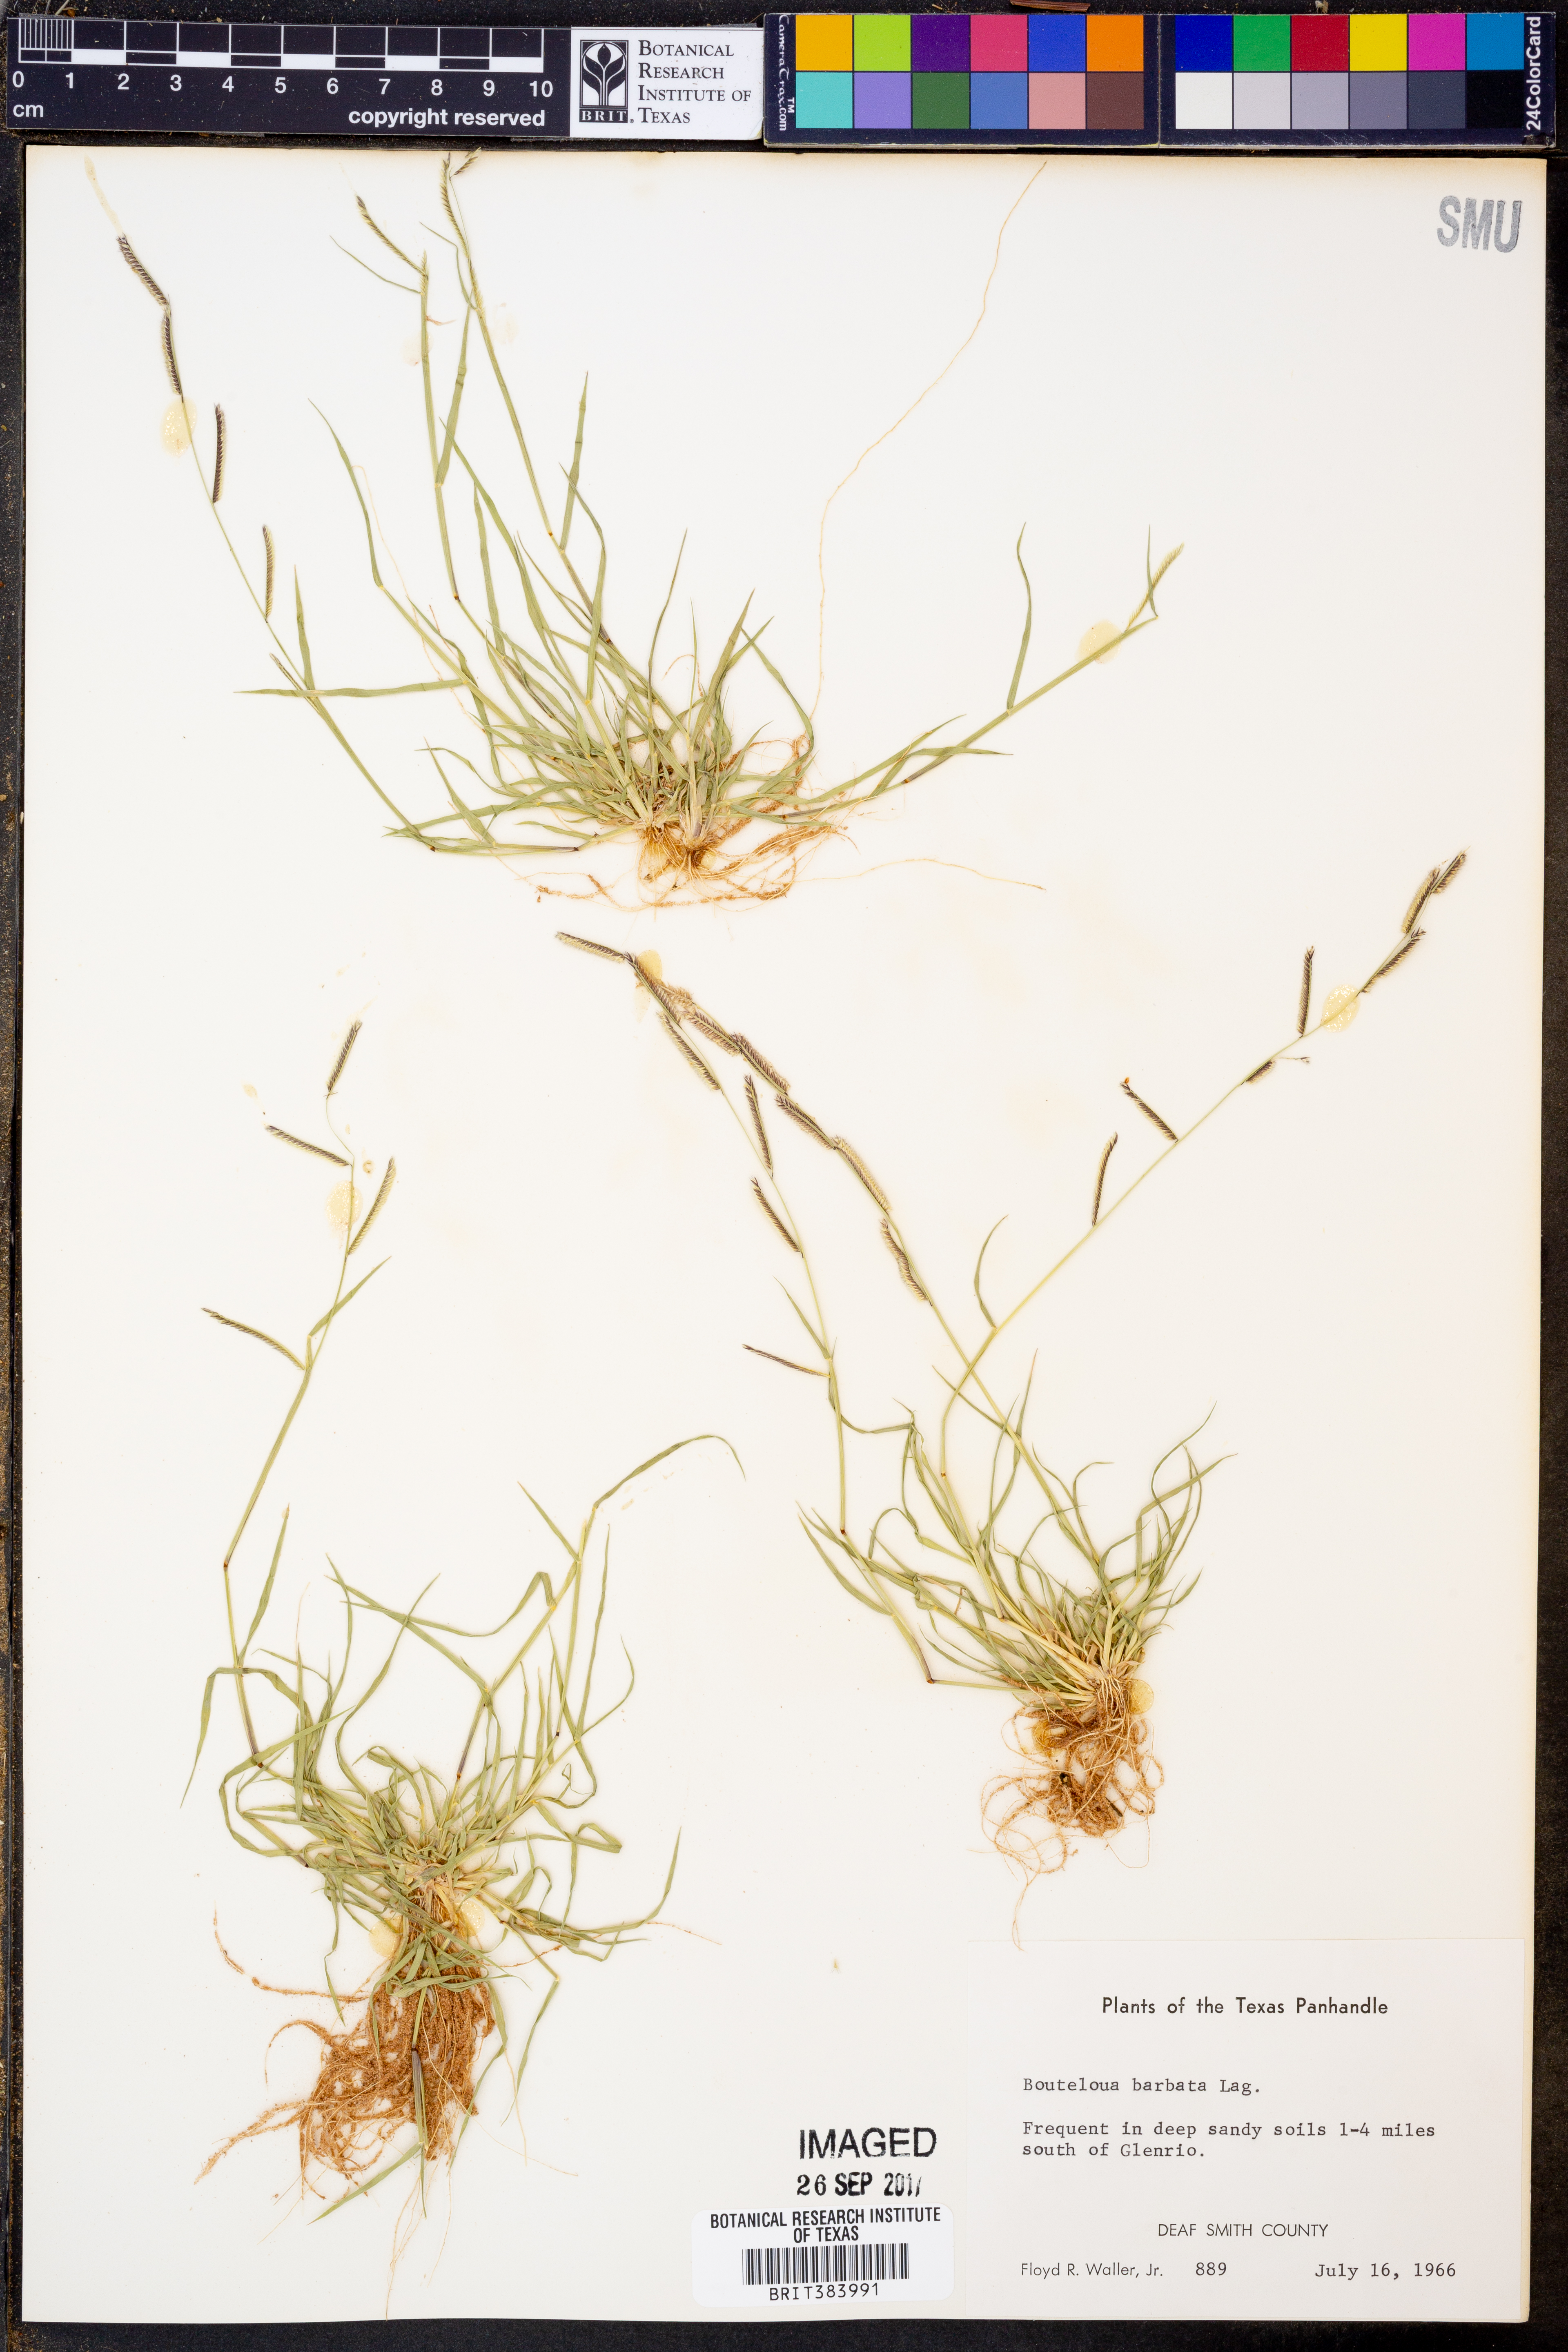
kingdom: Plantae
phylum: Tracheophyta
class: Liliopsida
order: Poales
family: Poaceae
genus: Bouteloua
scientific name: Bouteloua barbata
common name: Six-weeks grama
